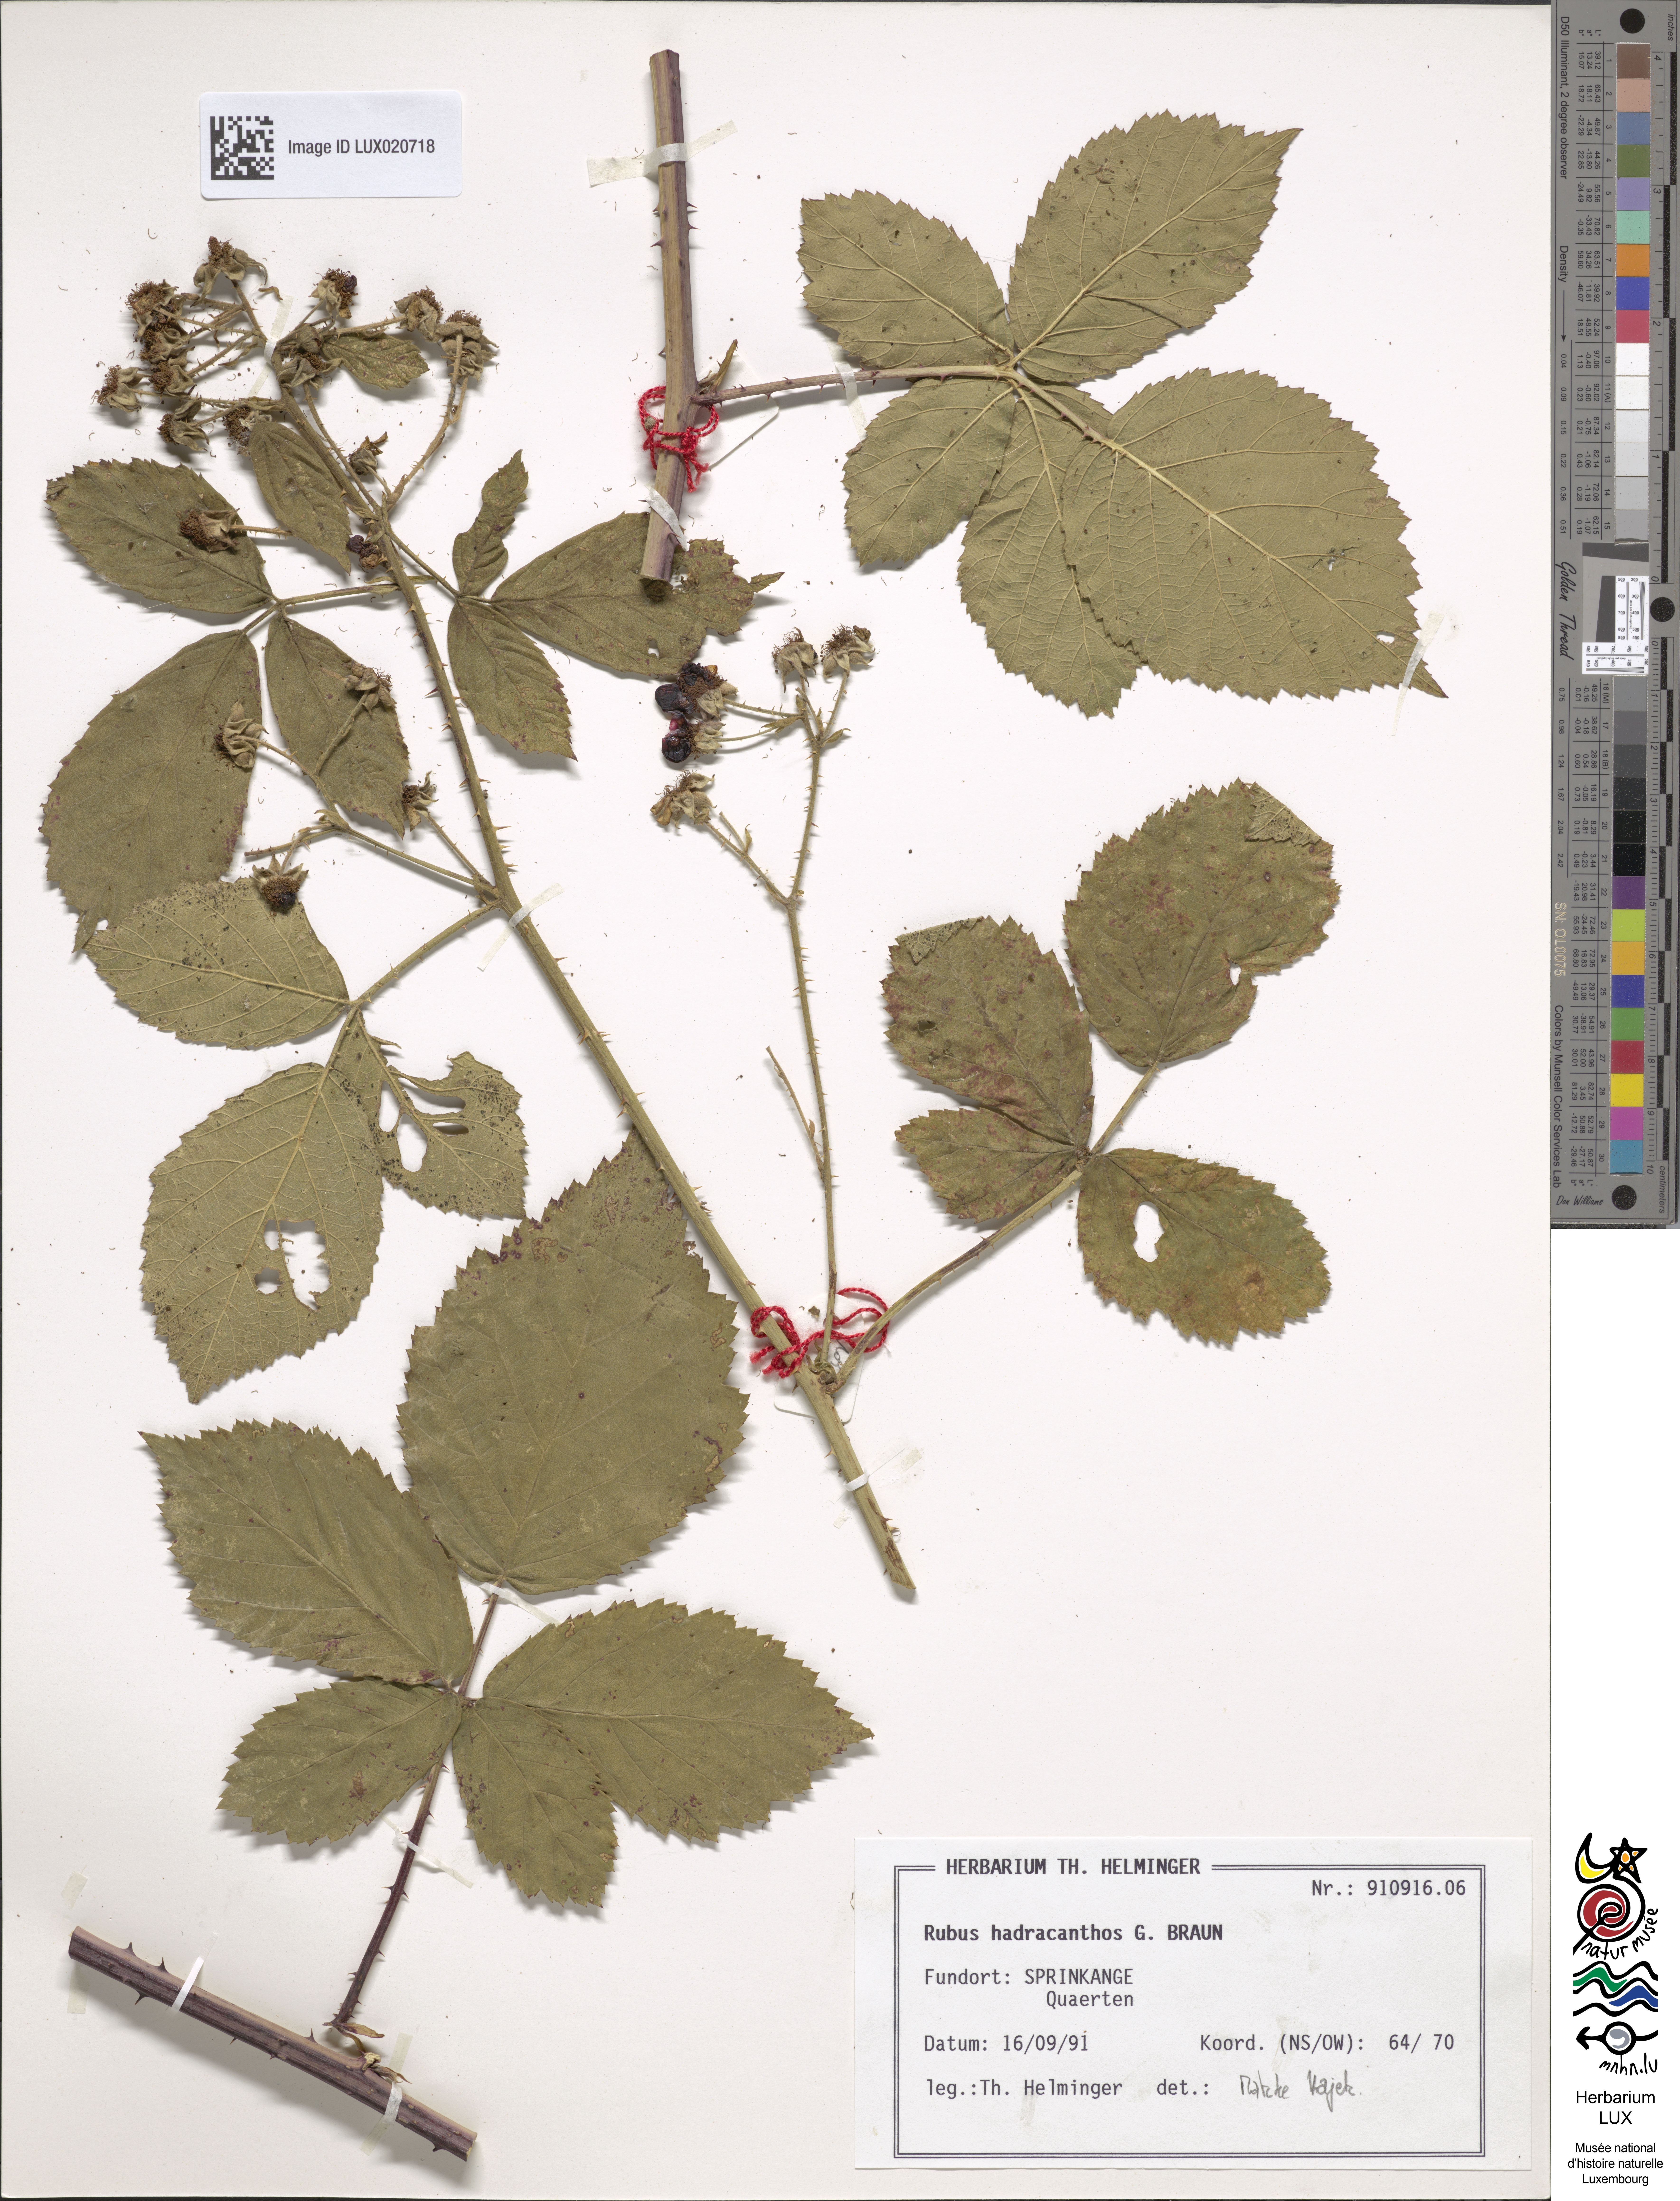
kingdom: Plantae
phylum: Tracheophyta
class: Magnoliopsida
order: Rosales
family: Rosaceae
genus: Rubus
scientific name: Rubus hadracanthos
